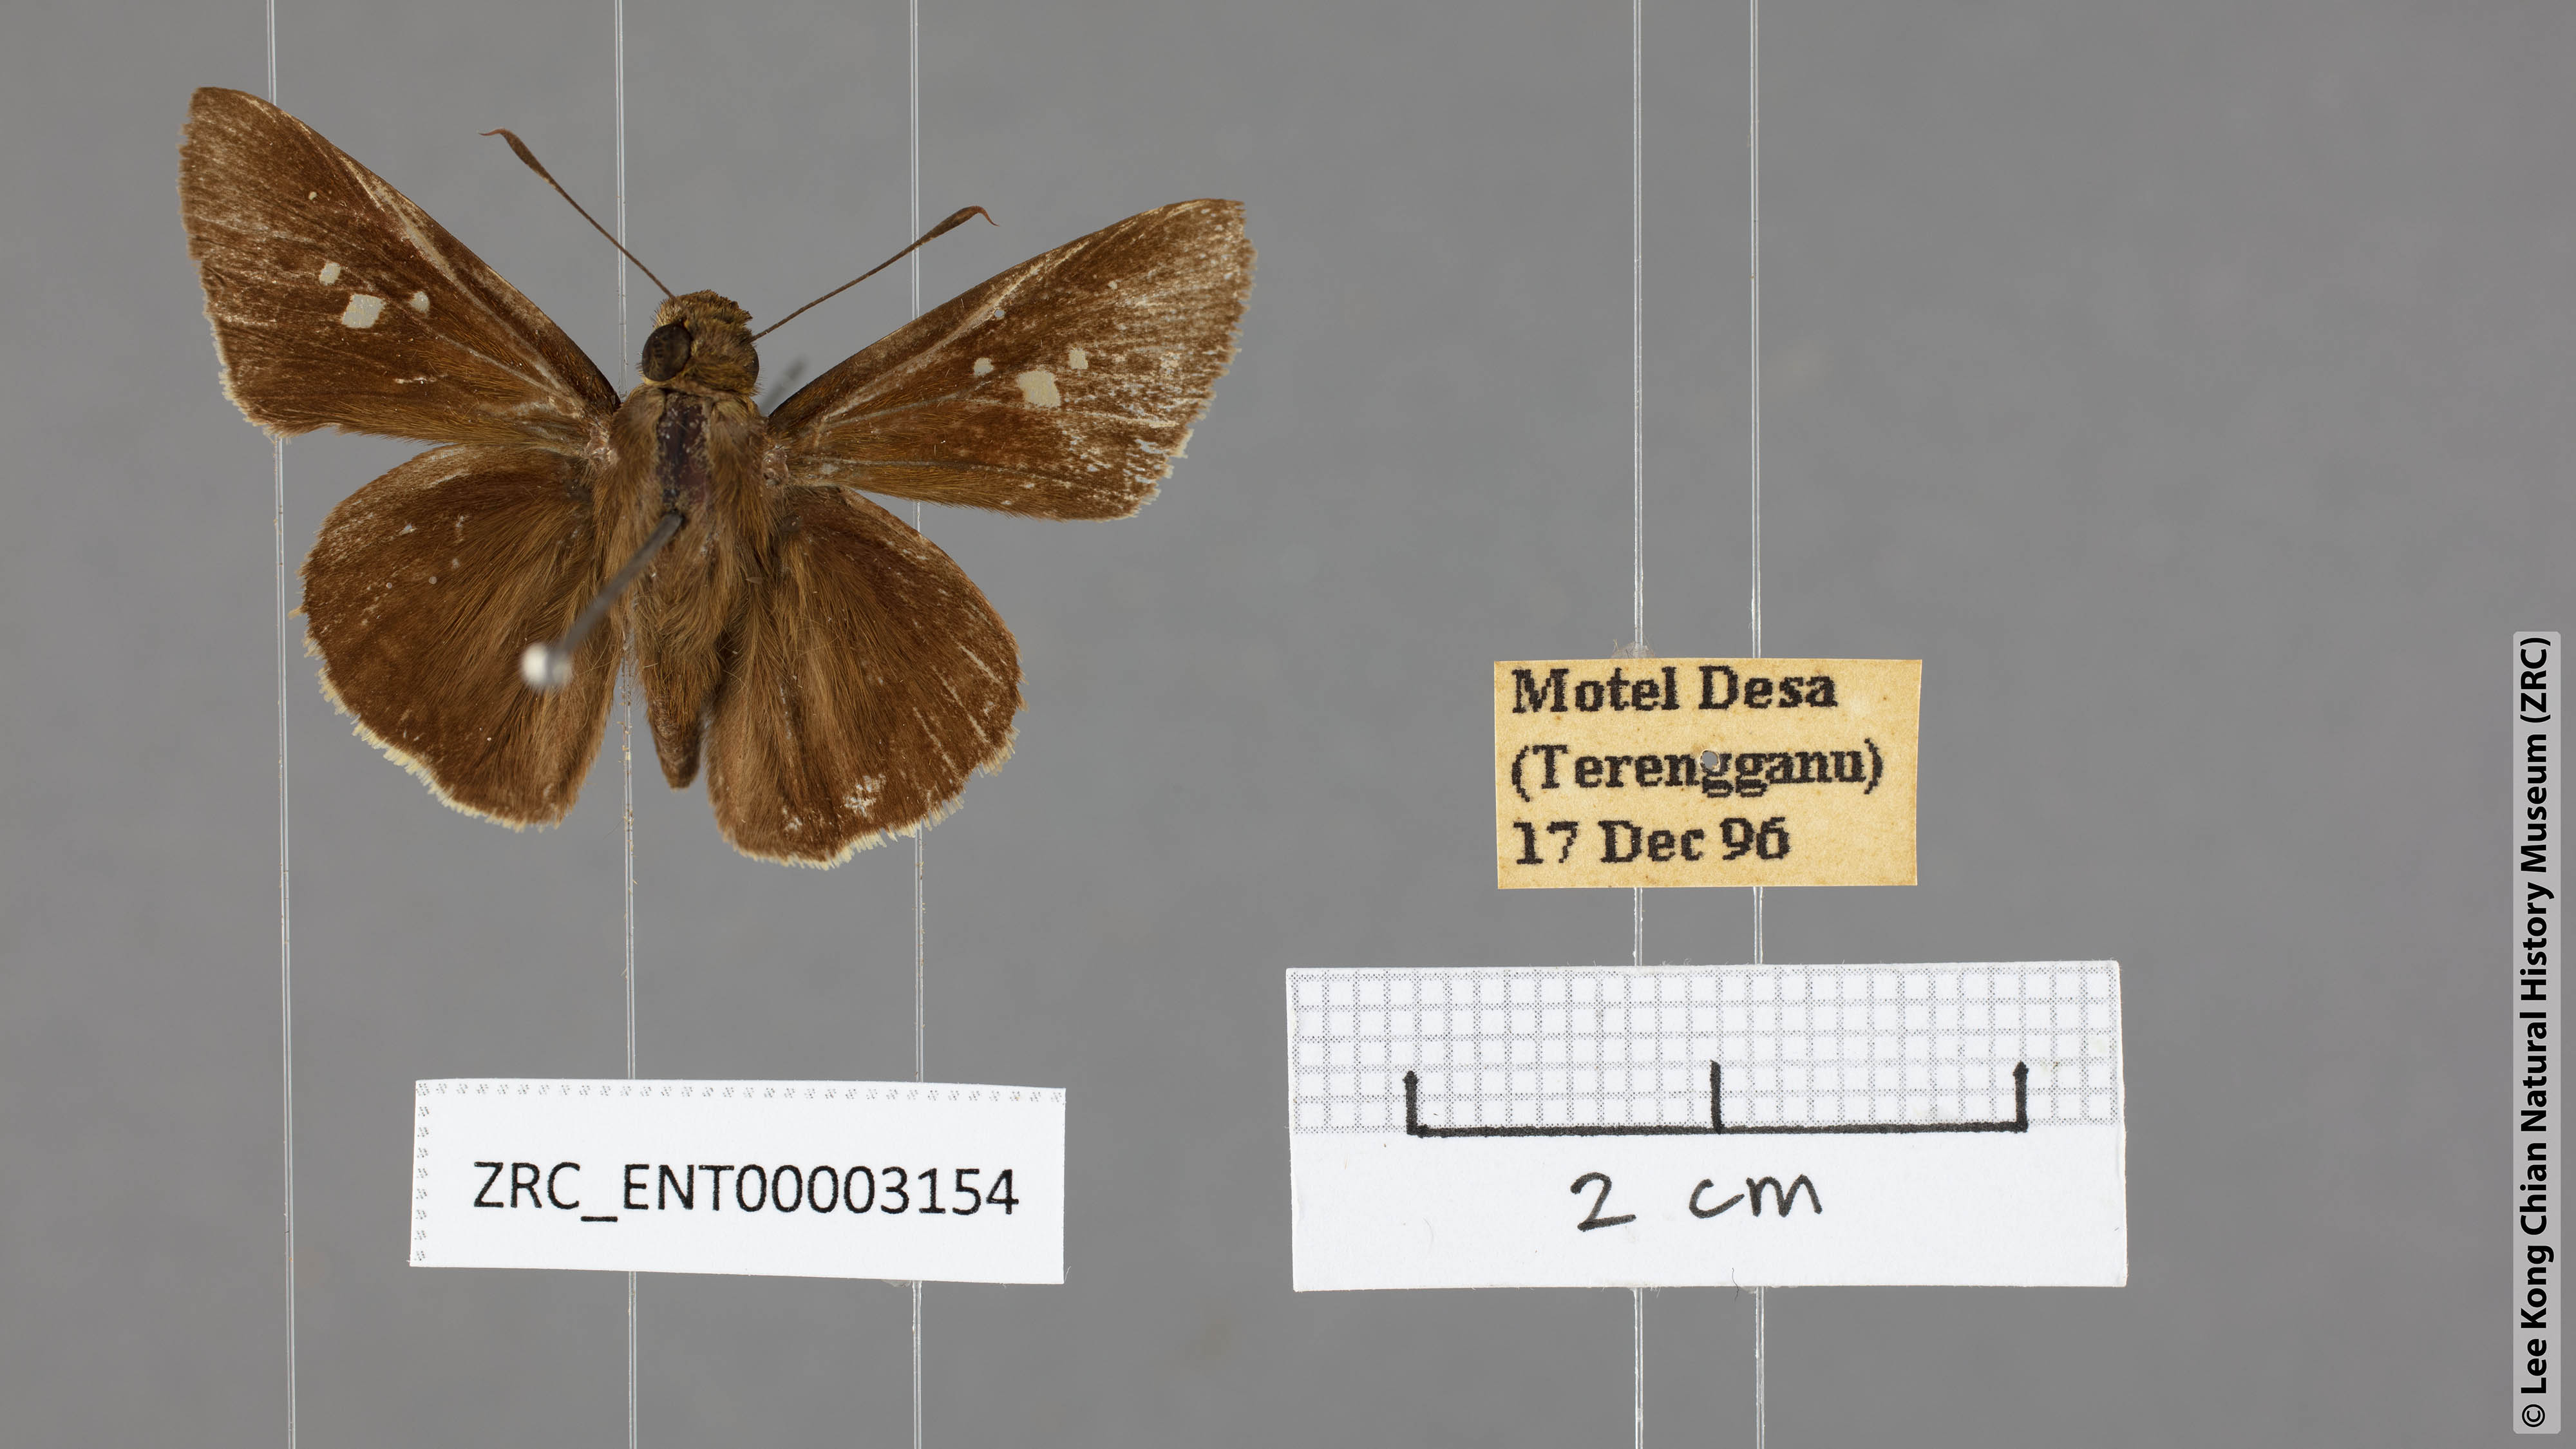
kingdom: Animalia
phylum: Arthropoda
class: Insecta
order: Lepidoptera
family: Hesperiidae
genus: Caltoris
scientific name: Caltoris cormasa
